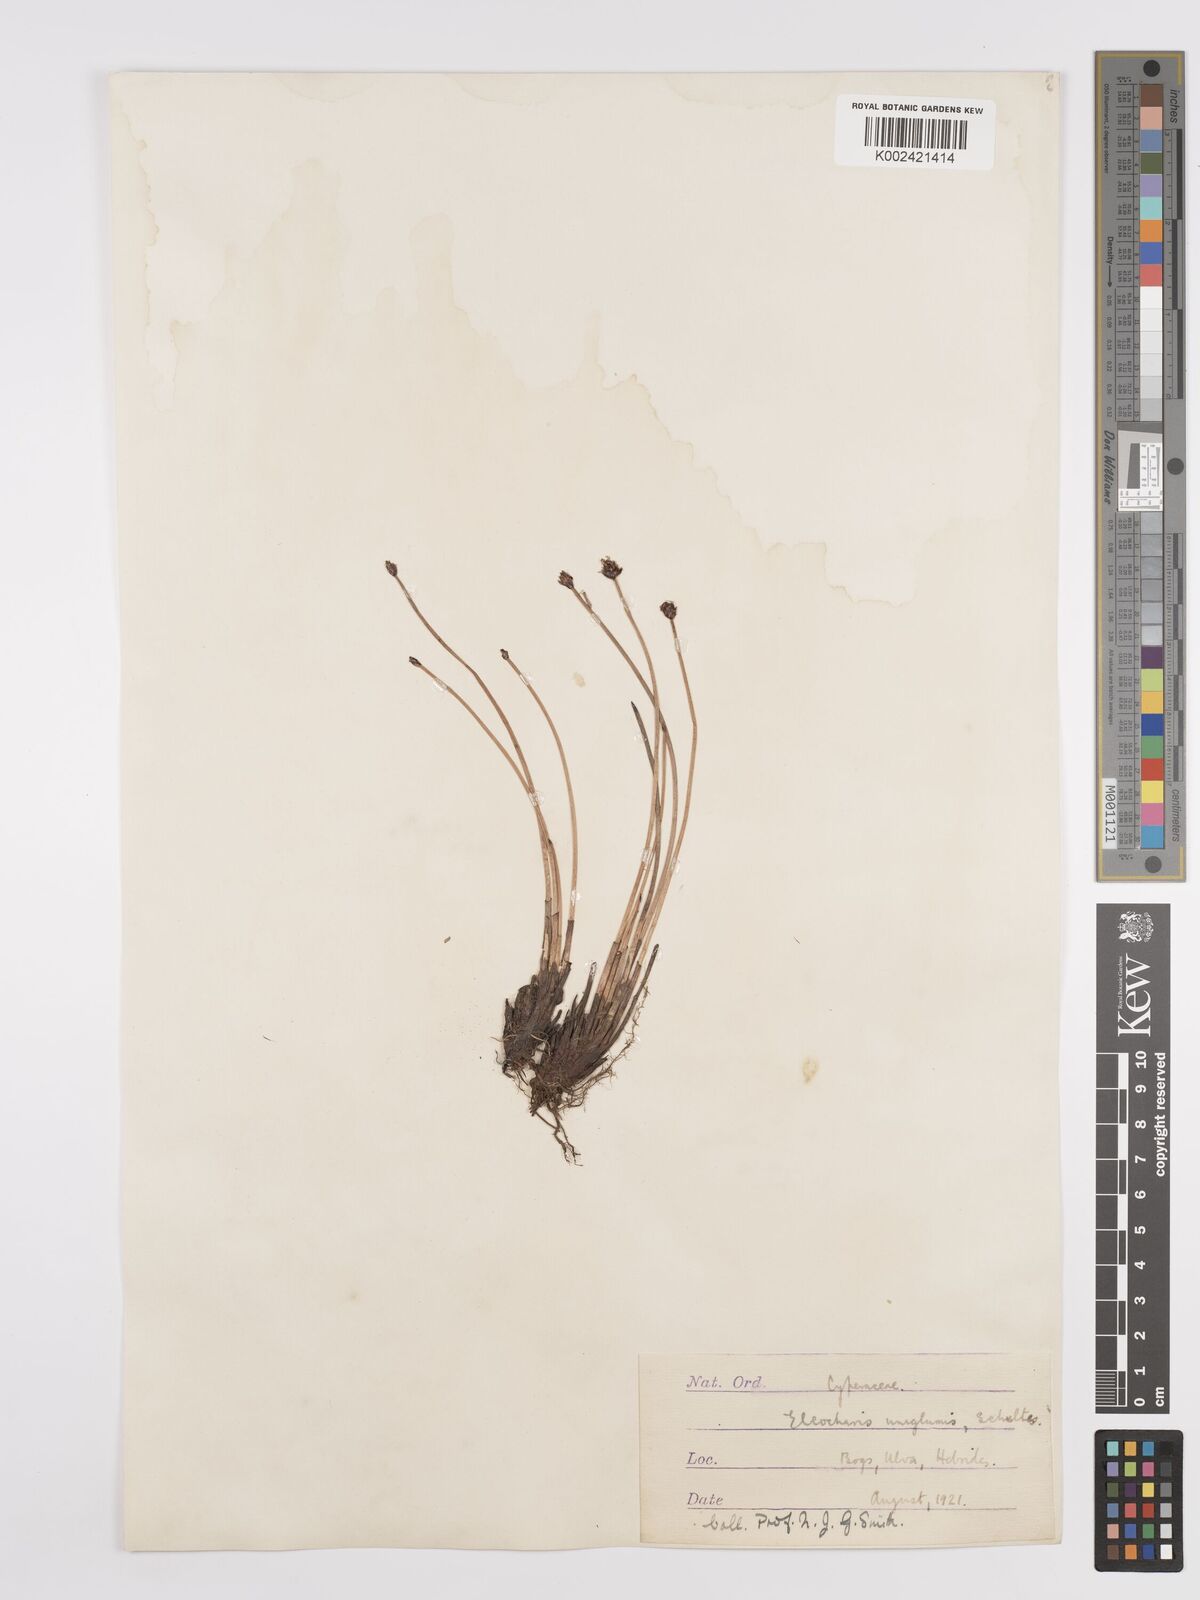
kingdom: Plantae
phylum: Tracheophyta
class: Liliopsida
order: Poales
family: Cyperaceae
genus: Eleocharis
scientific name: Eleocharis uniglumis
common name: Slender spike-rush
